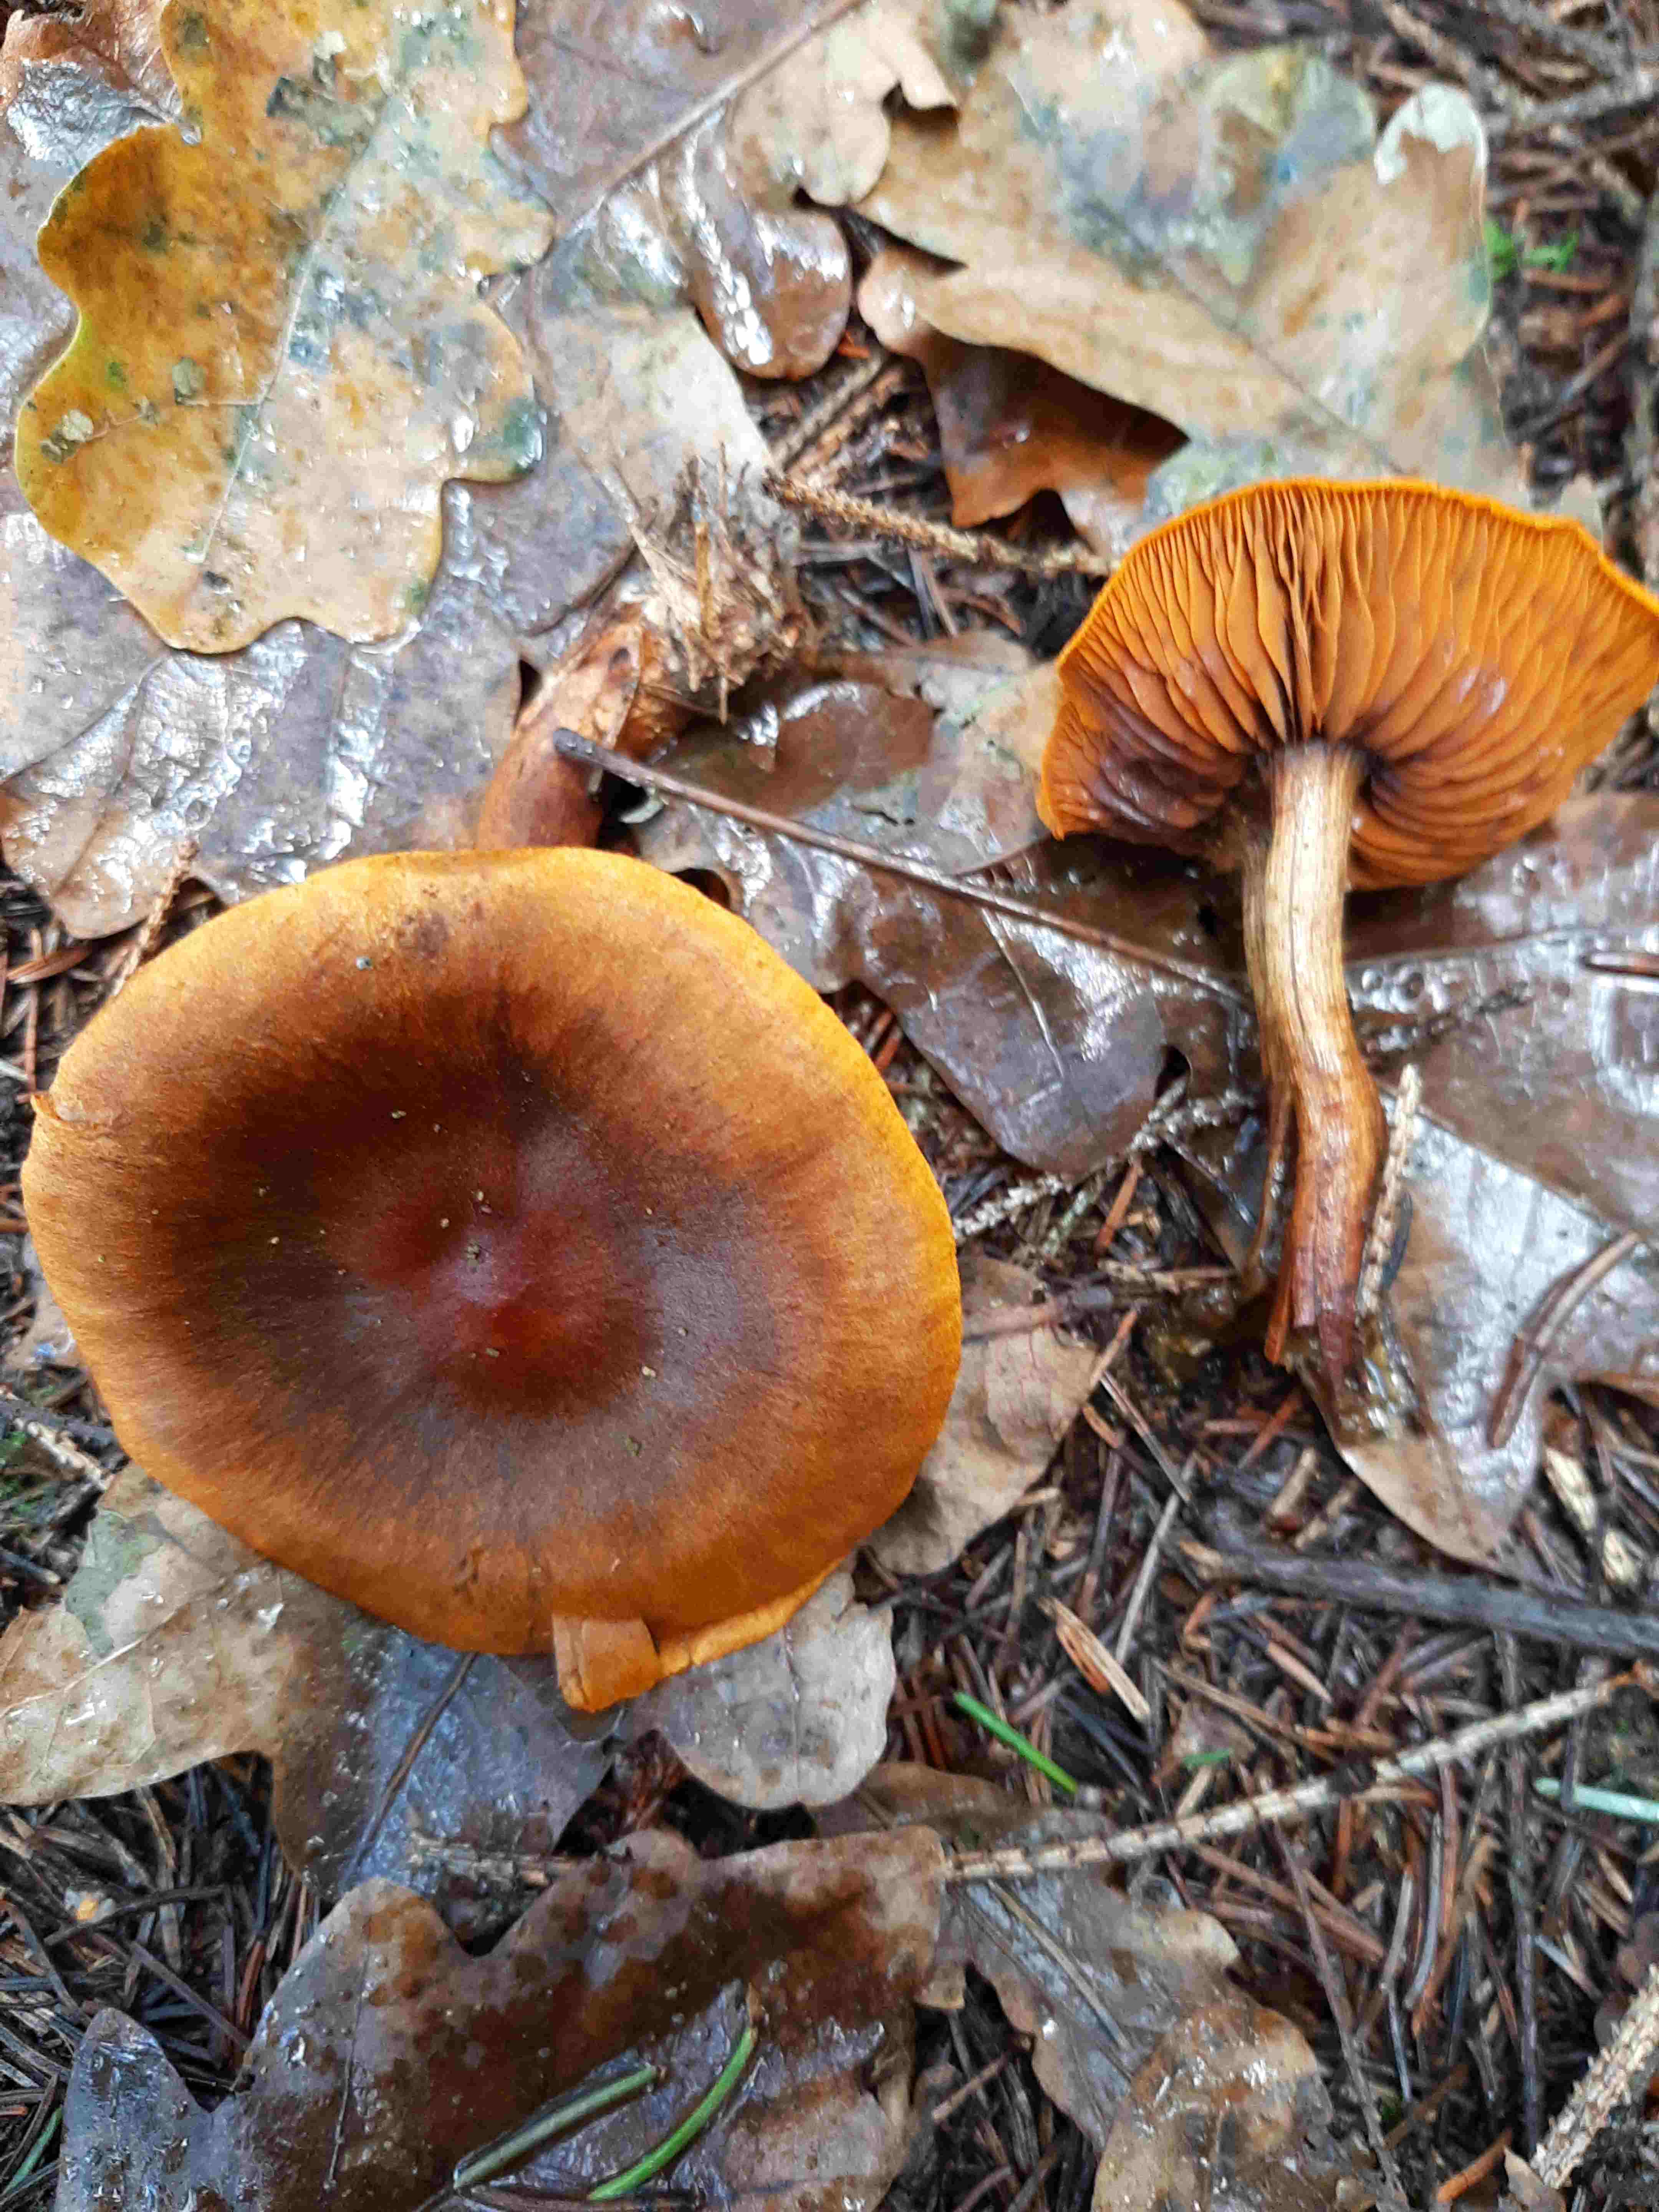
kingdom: Fungi
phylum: Basidiomycota
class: Agaricomycetes
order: Agaricales
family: Cortinariaceae
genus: Cortinarius
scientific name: Cortinarius
